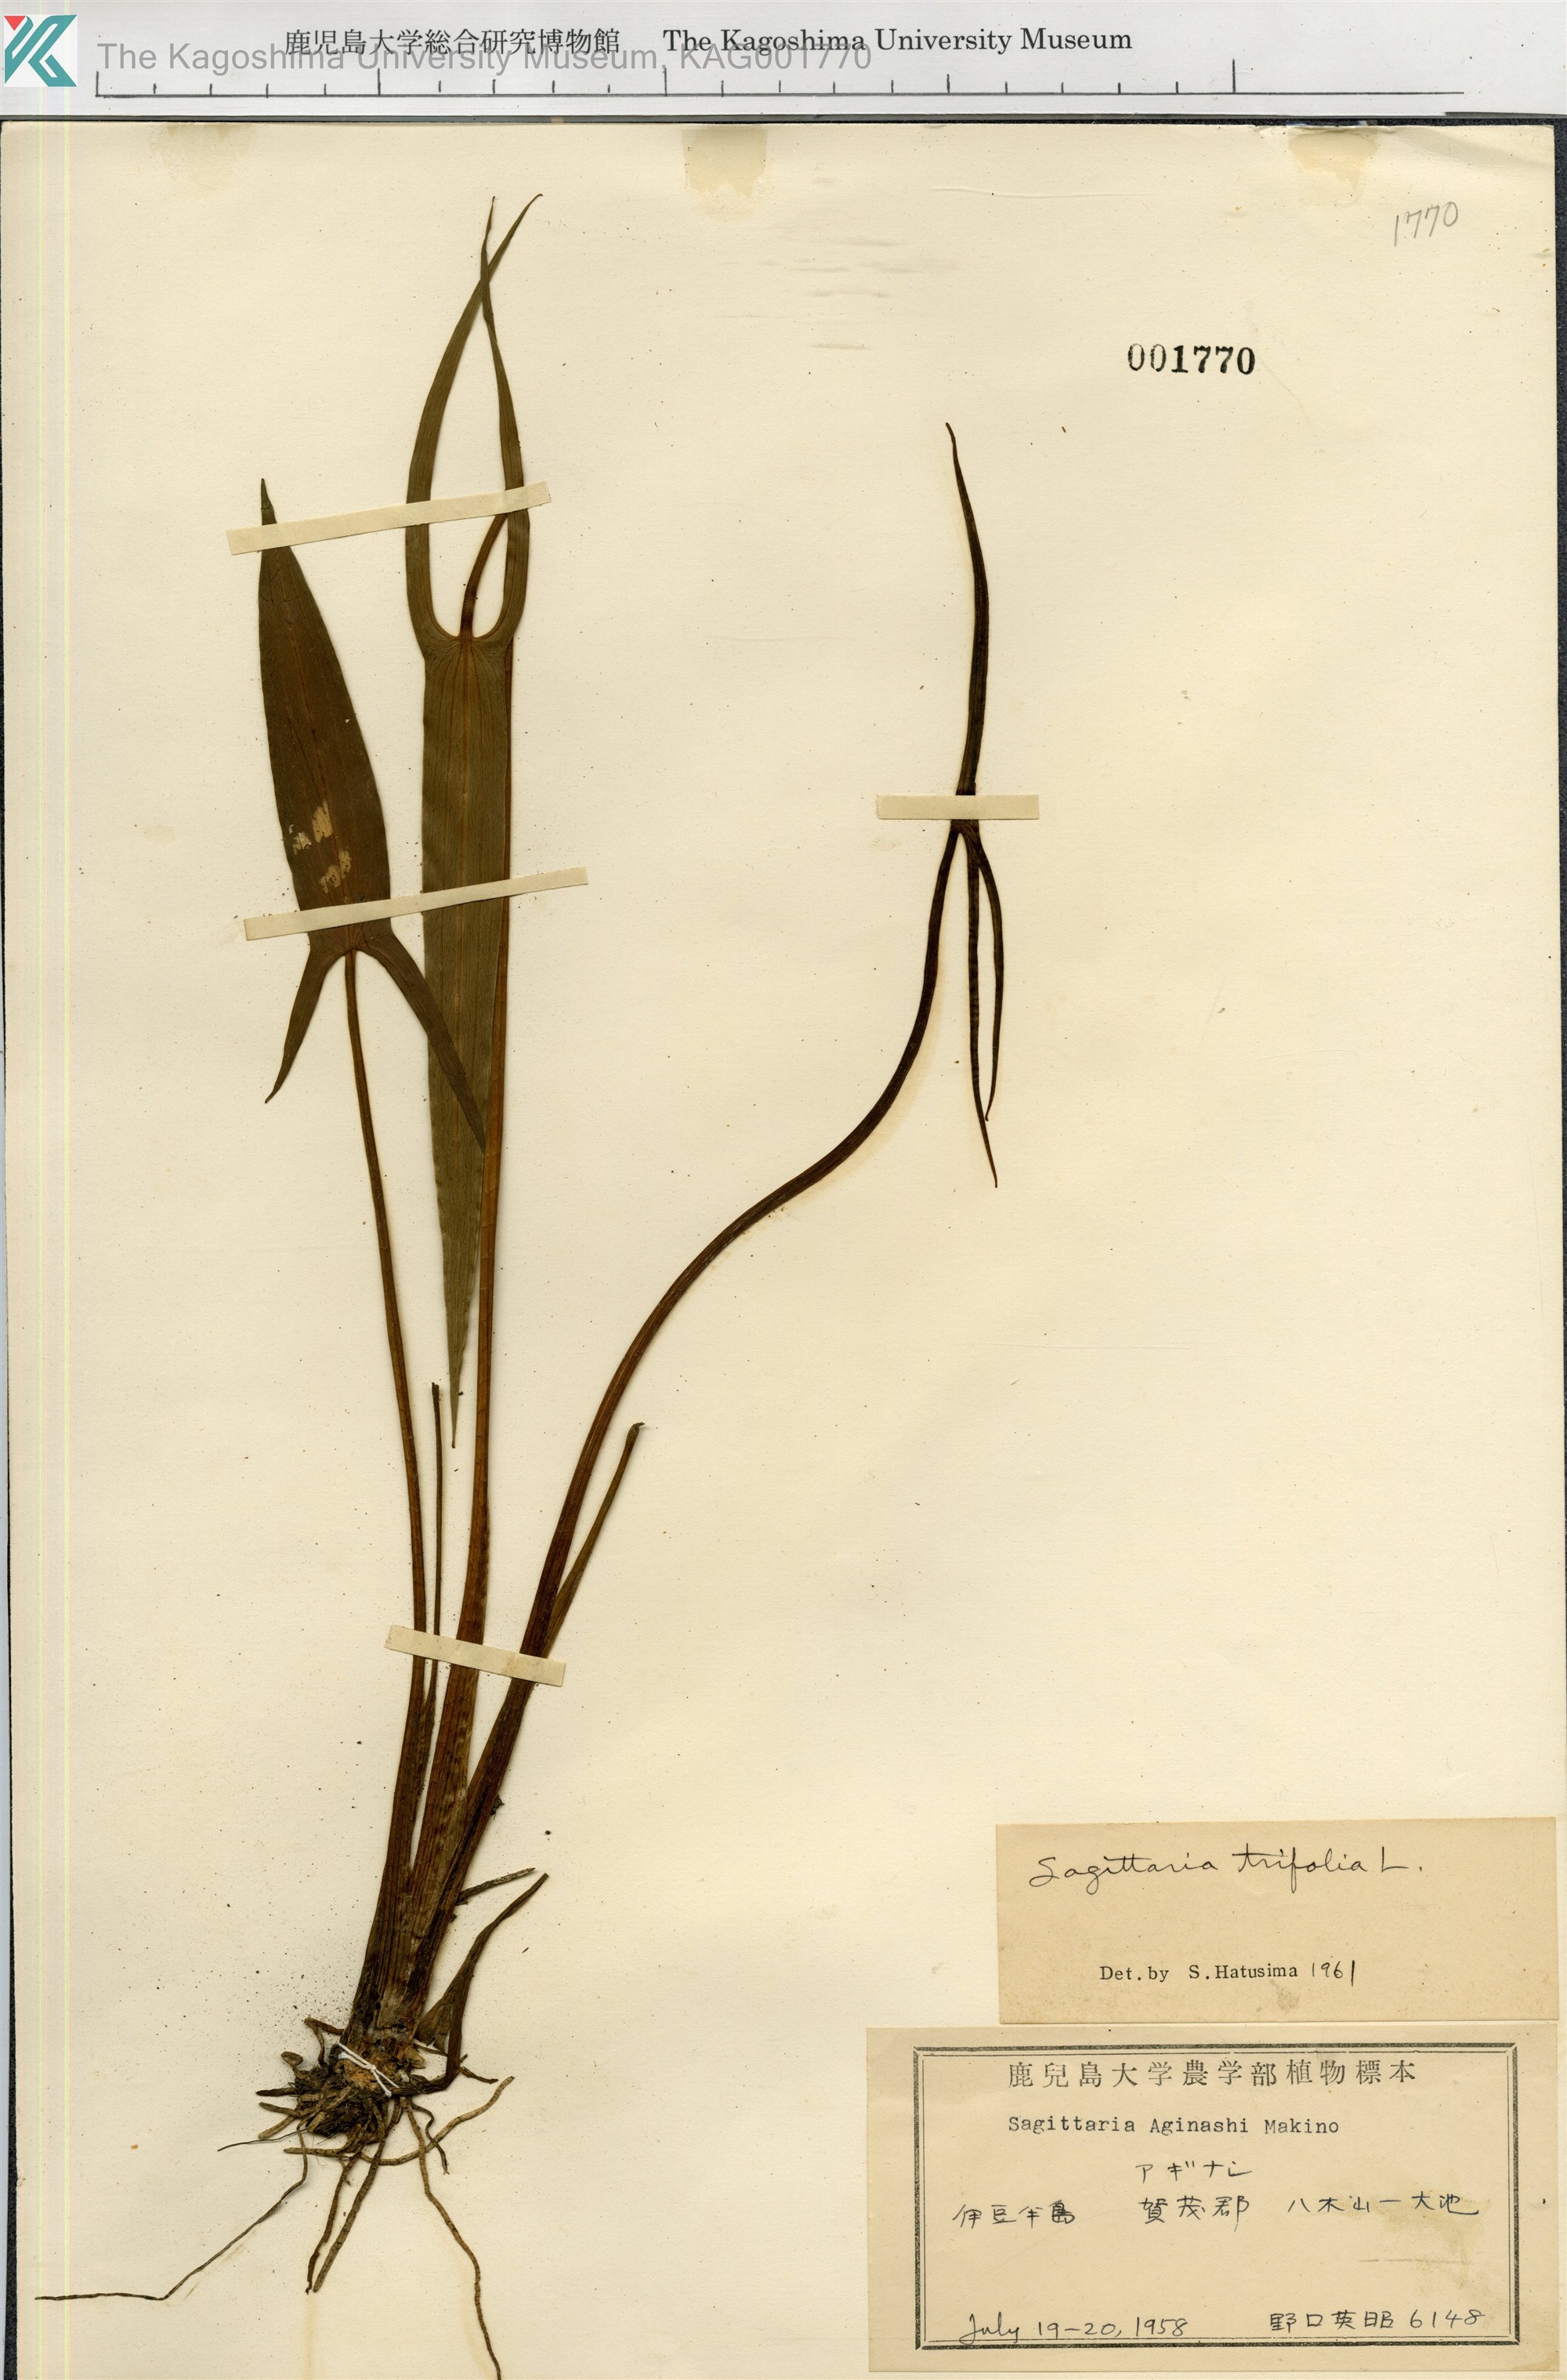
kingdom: Plantae
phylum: Tracheophyta
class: Liliopsida
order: Alismatales
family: Alismataceae
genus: Sagittaria
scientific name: Sagittaria trifolia
